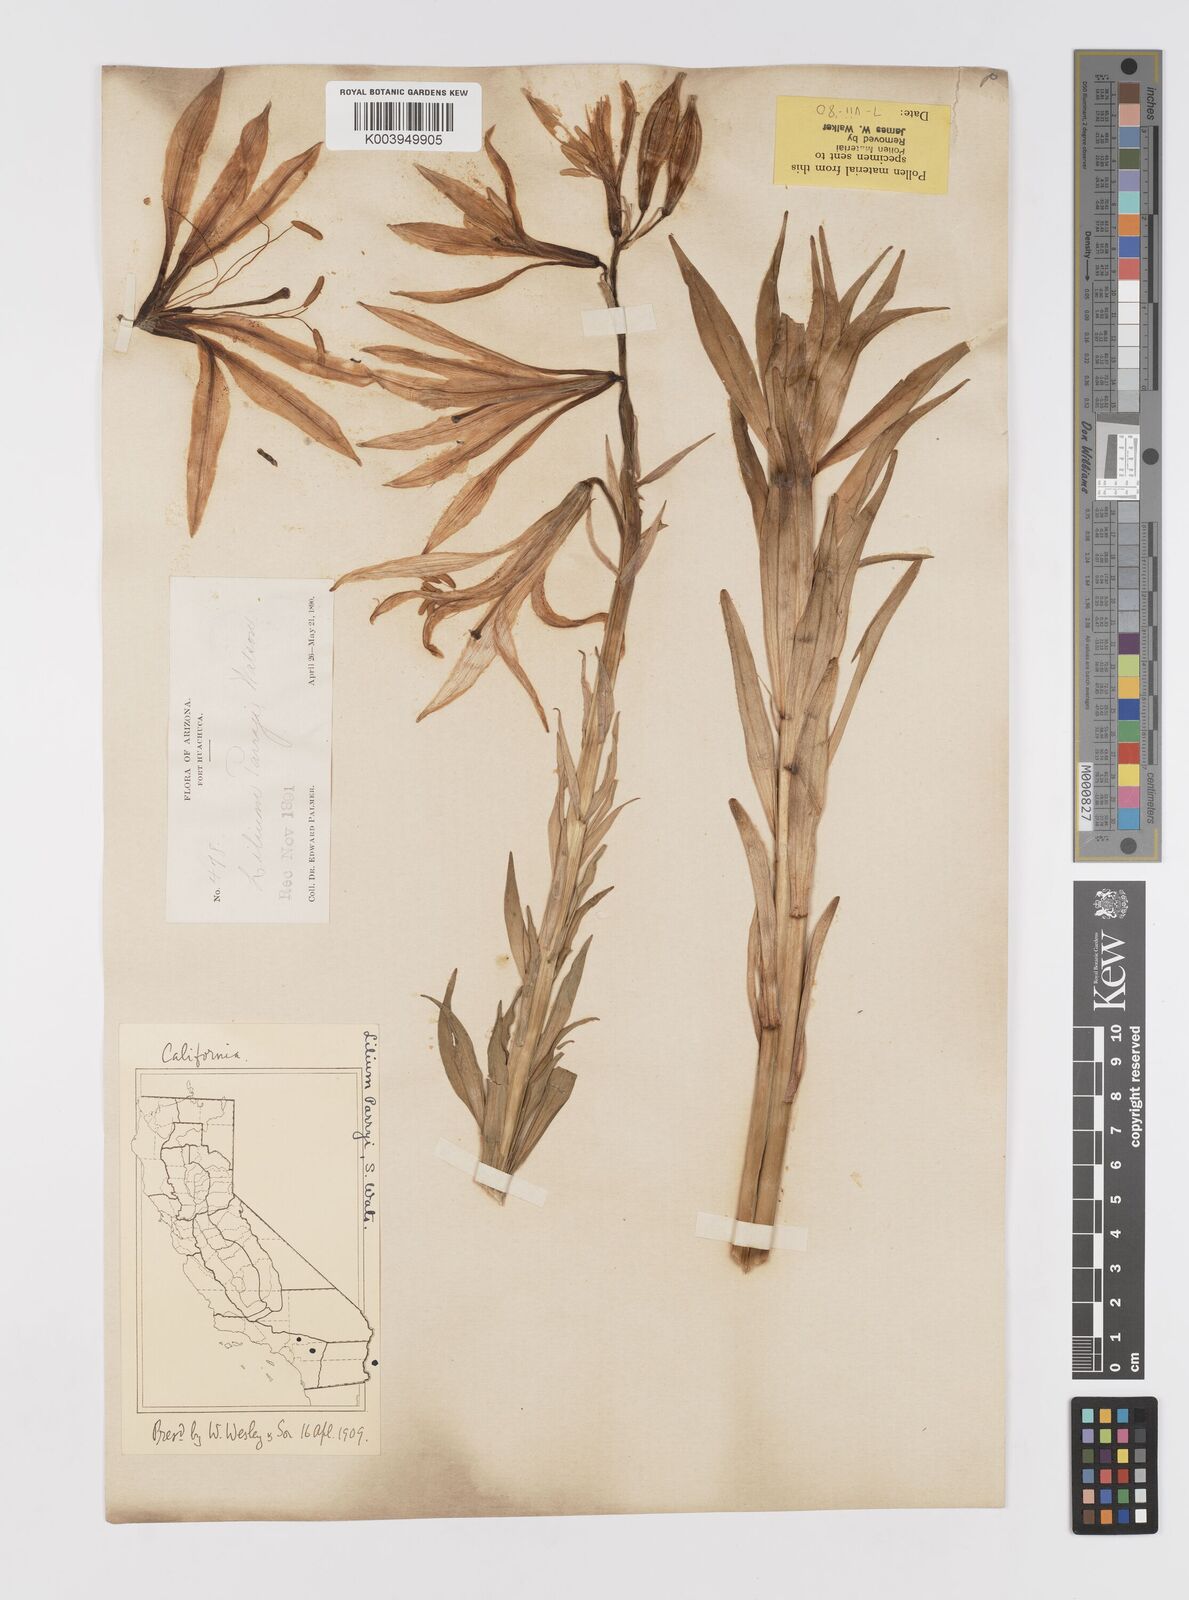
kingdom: Plantae
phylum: Tracheophyta
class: Liliopsida
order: Liliales
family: Liliaceae
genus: Lilium
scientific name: Lilium parryi
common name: Lemon lily
